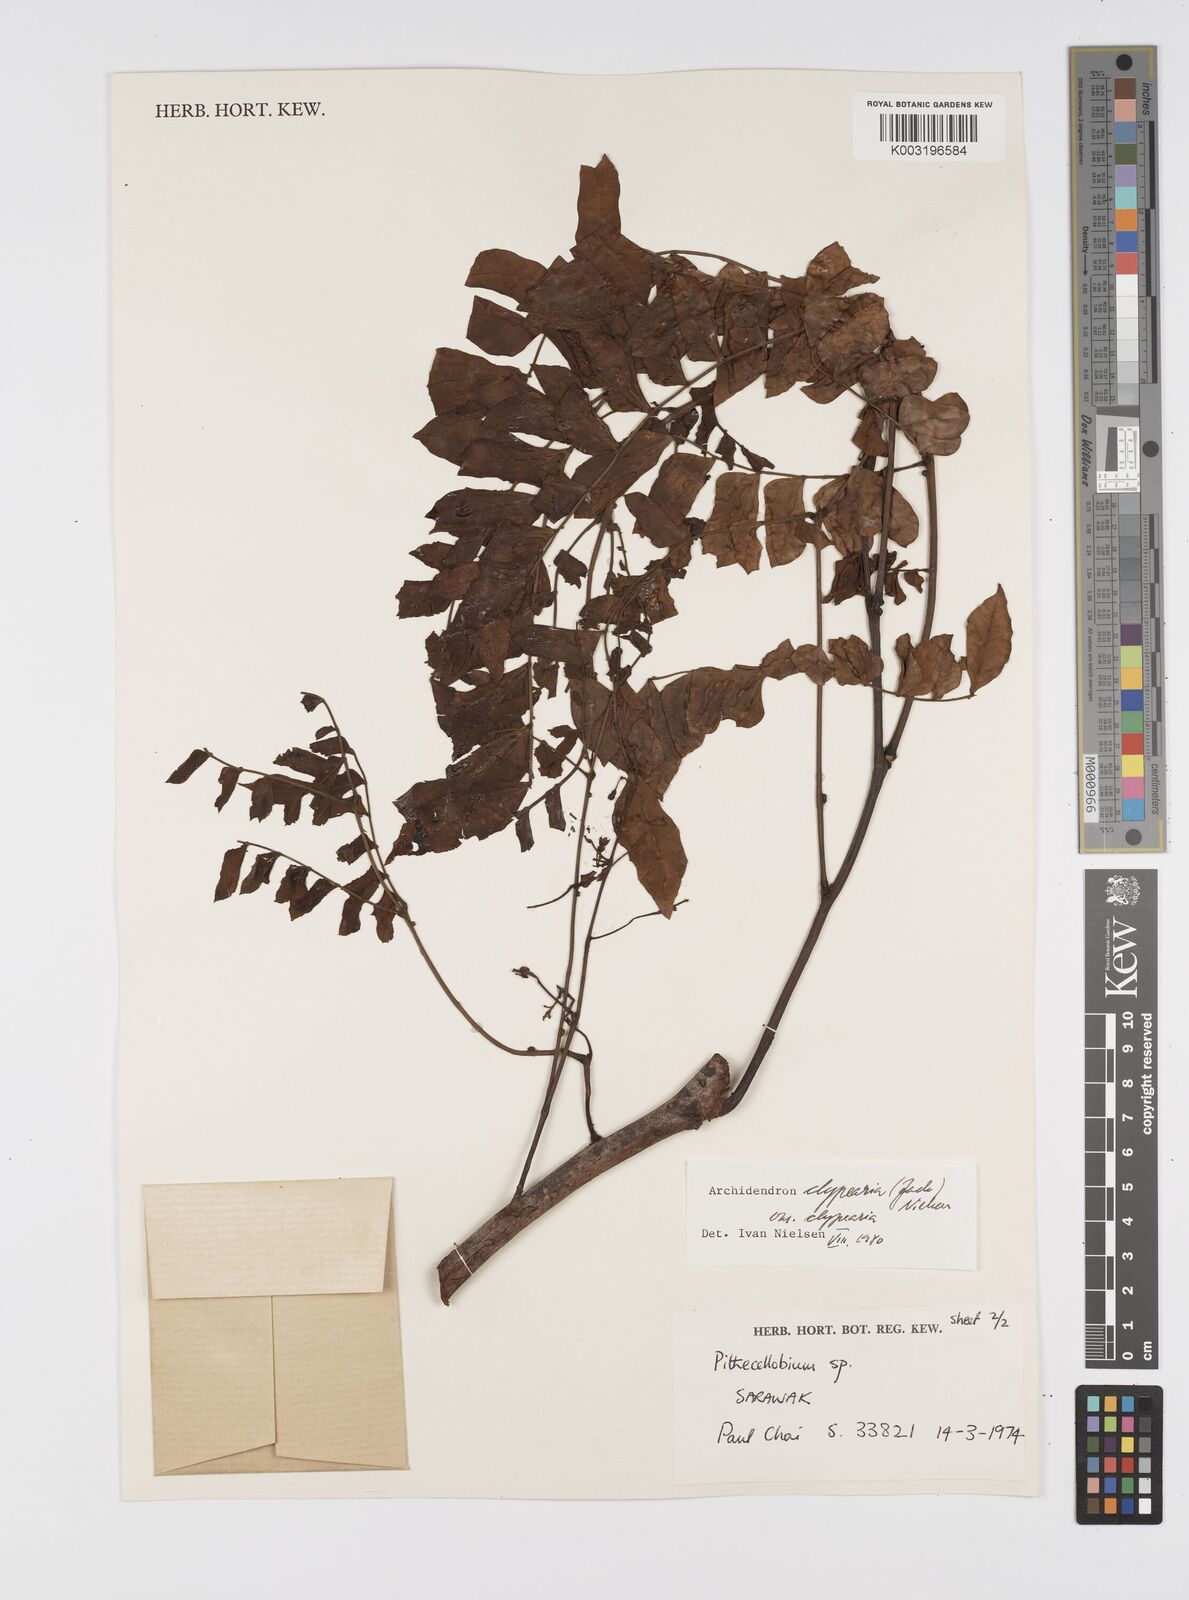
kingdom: Plantae
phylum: Tracheophyta
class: Magnoliopsida
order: Fabales
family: Fabaceae
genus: Archidendron
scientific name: Archidendron clypearia
